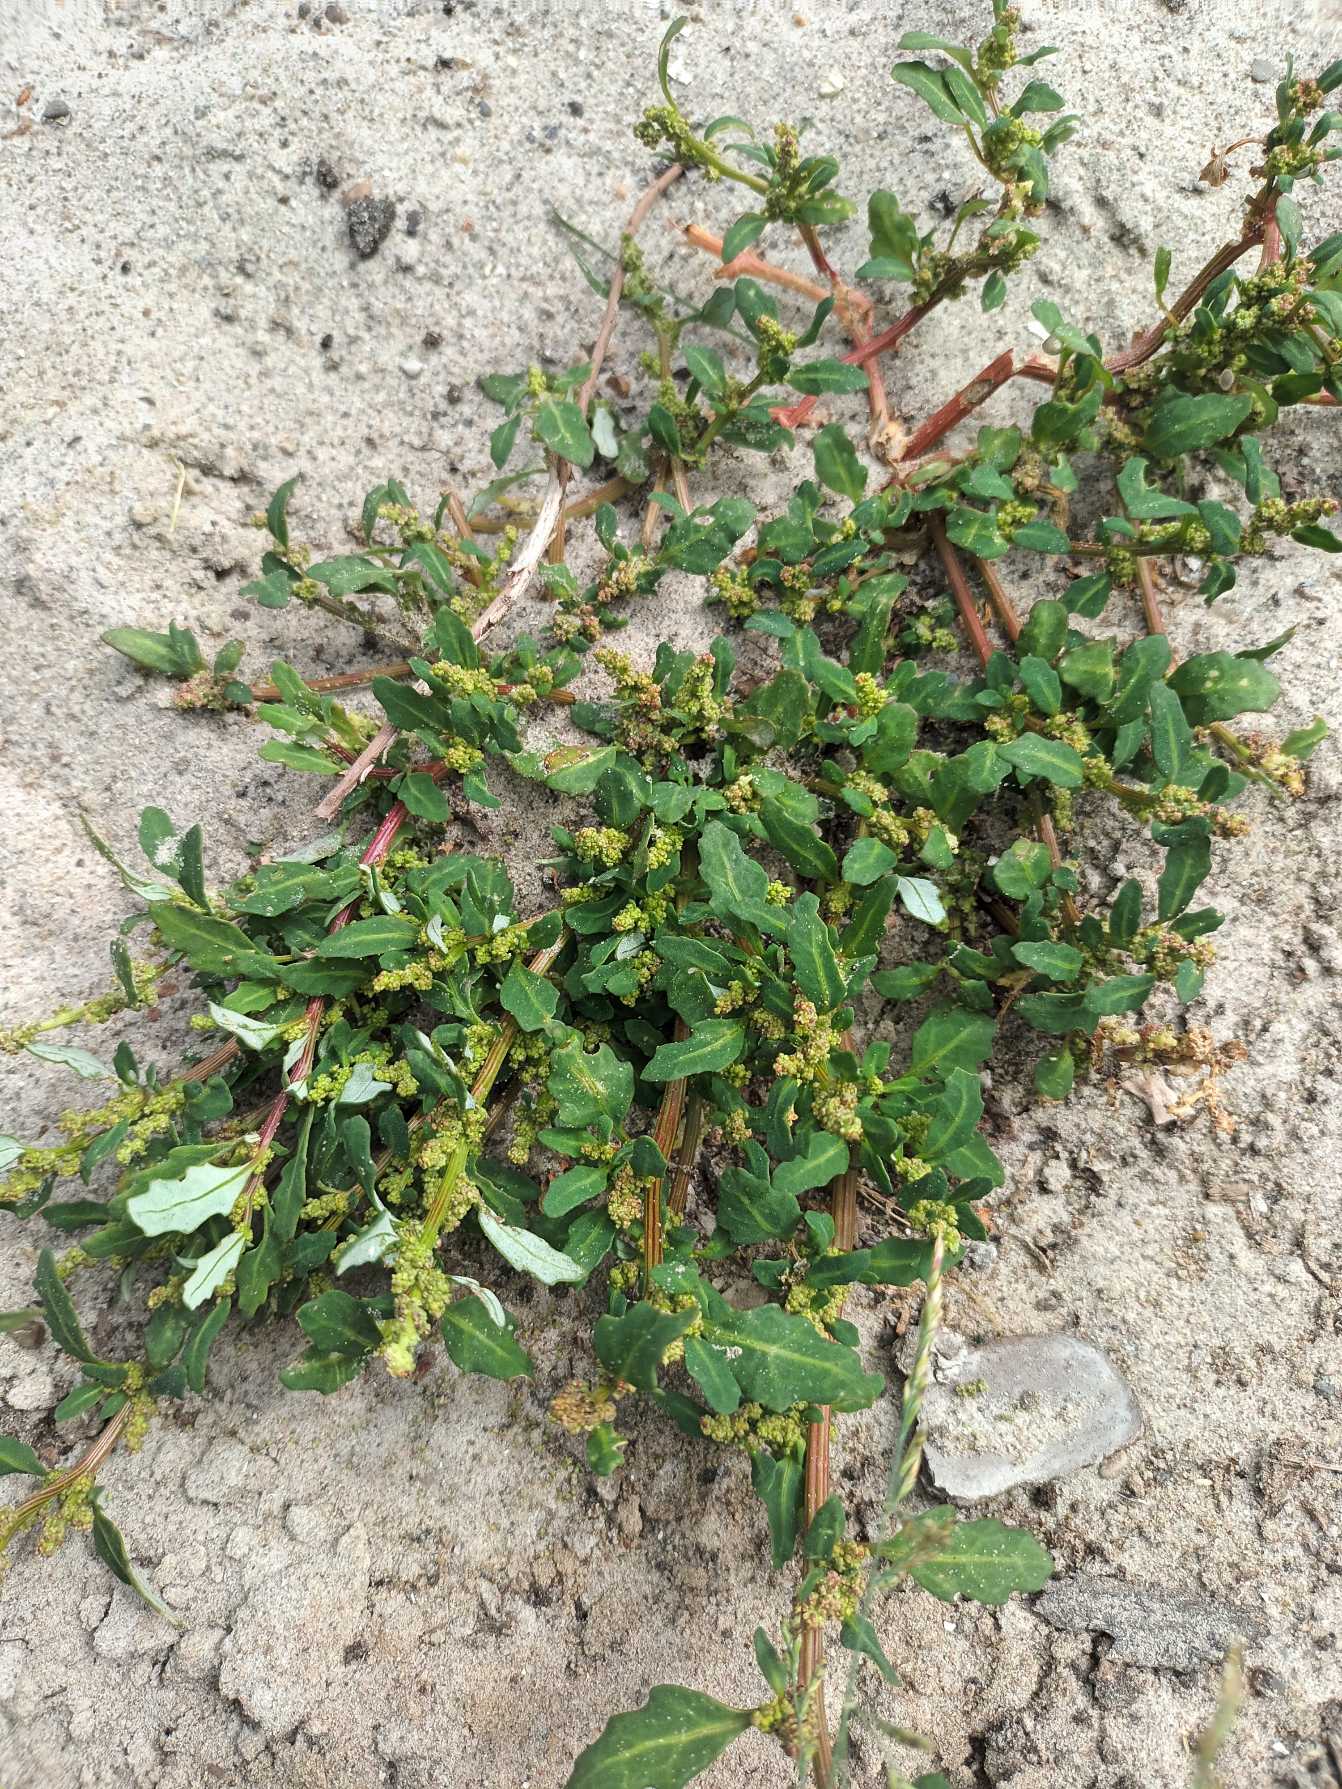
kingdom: Plantae
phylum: Tracheophyta
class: Magnoliopsida
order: Caryophyllales
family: Amaranthaceae
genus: Oxybasis
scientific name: Oxybasis glauca
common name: Blågrøn gåsefod
